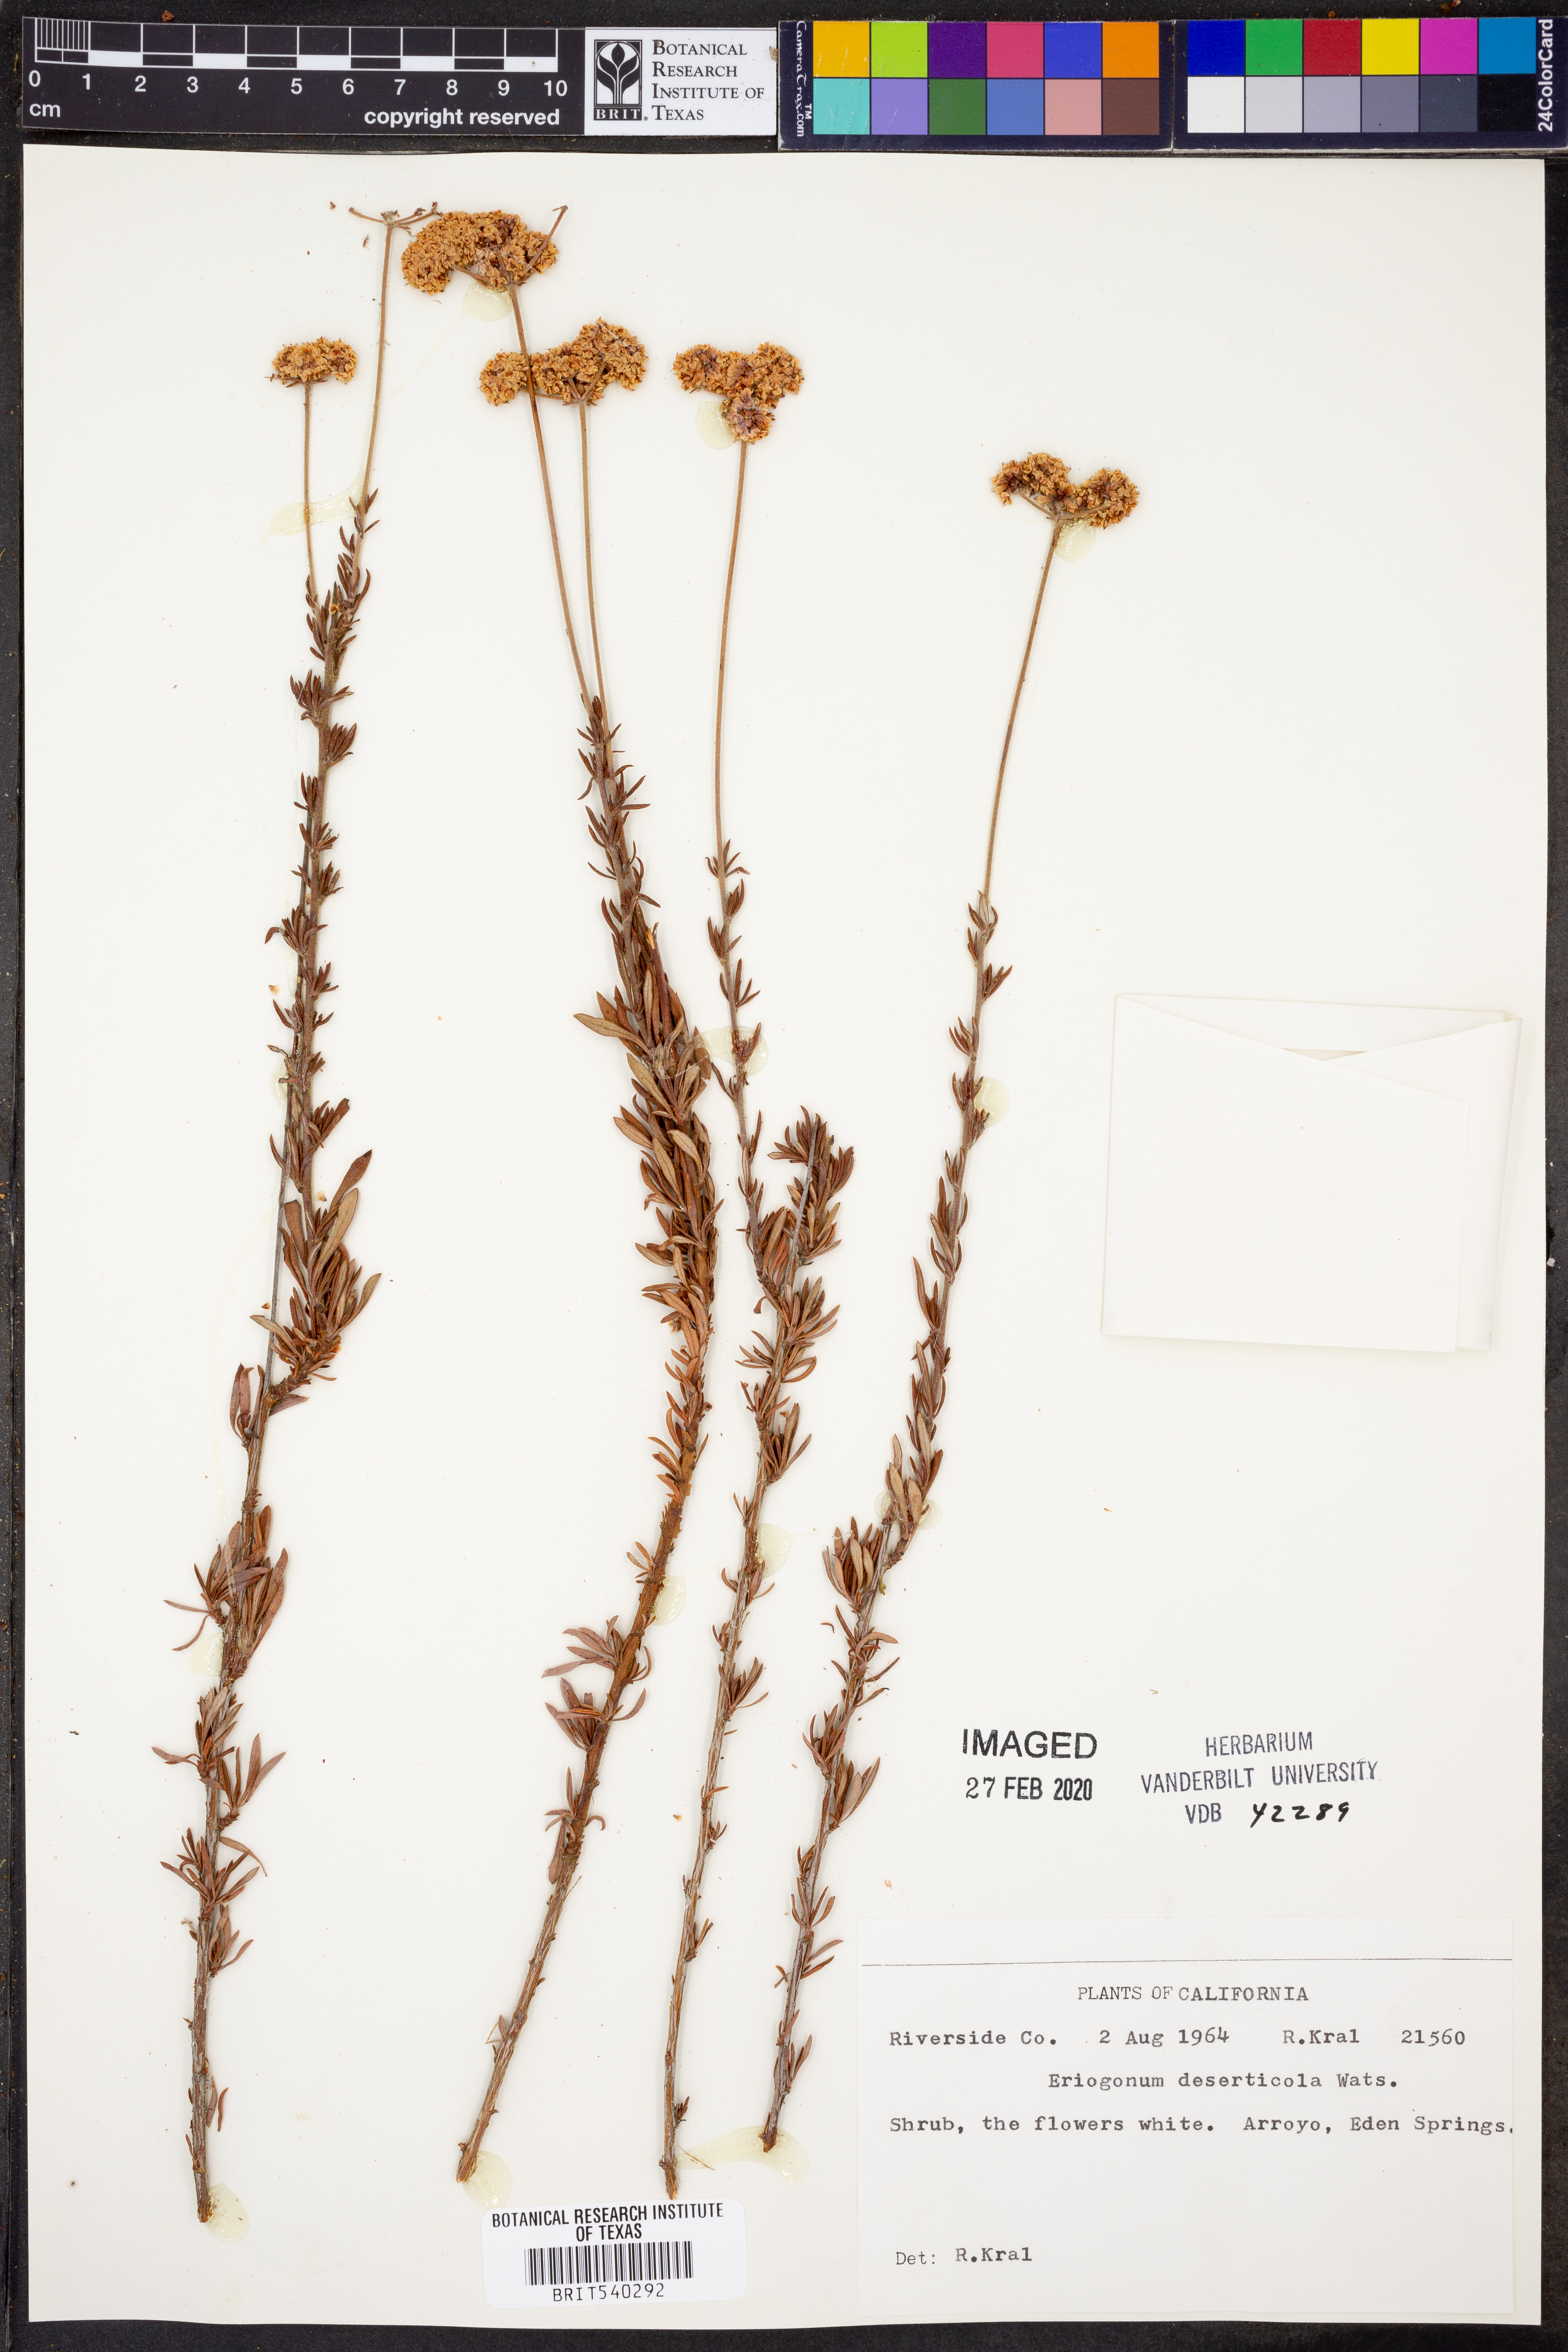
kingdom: Plantae
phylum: Tracheophyta
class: Magnoliopsida
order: Caryophyllales
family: Polygonaceae
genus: Eriogonum
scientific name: Eriogonum deserticola
